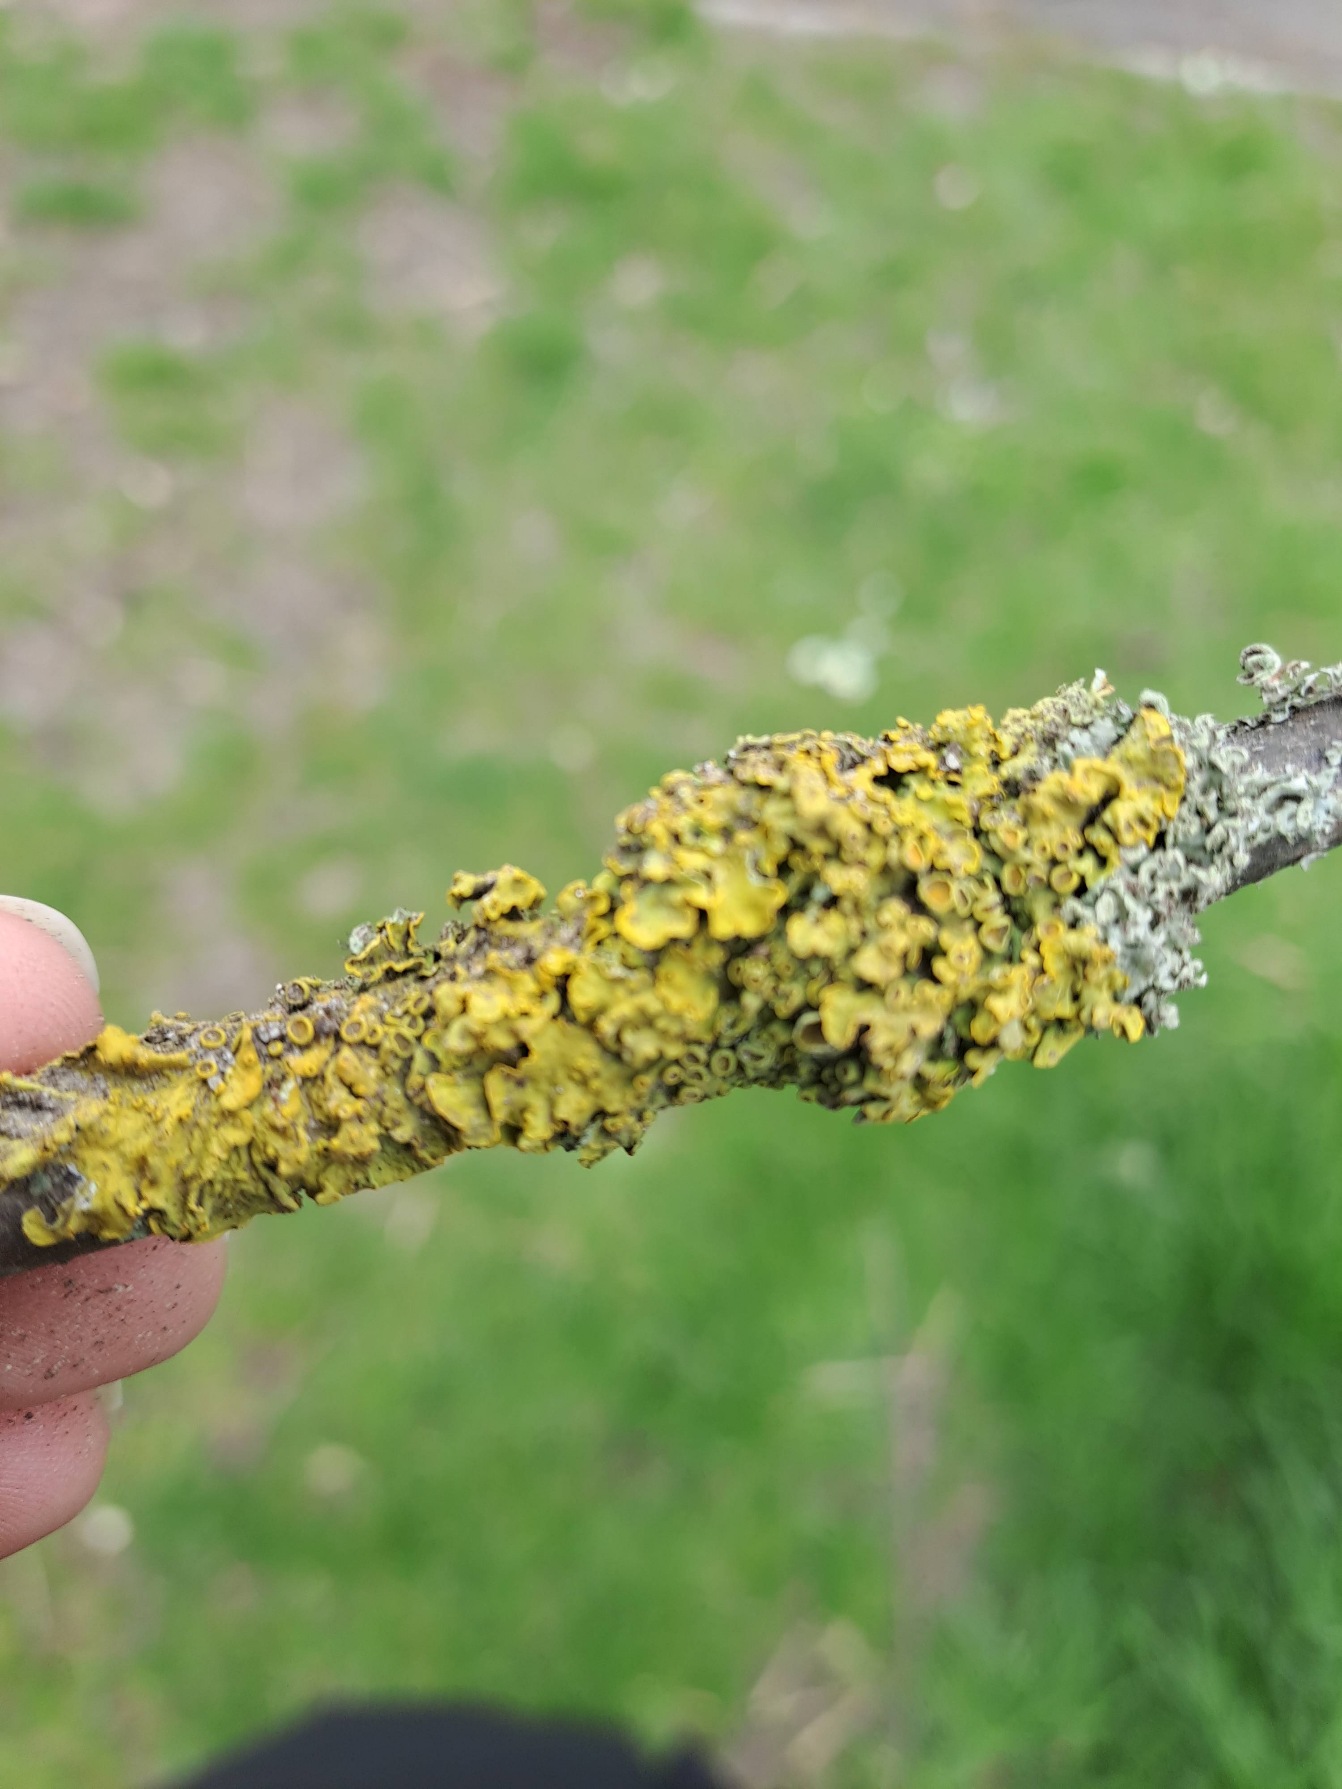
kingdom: Fungi
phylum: Ascomycota
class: Lecanoromycetes
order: Teloschistales
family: Teloschistaceae
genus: Xanthoria
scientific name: Xanthoria parietina
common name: Almindelig væggelav
